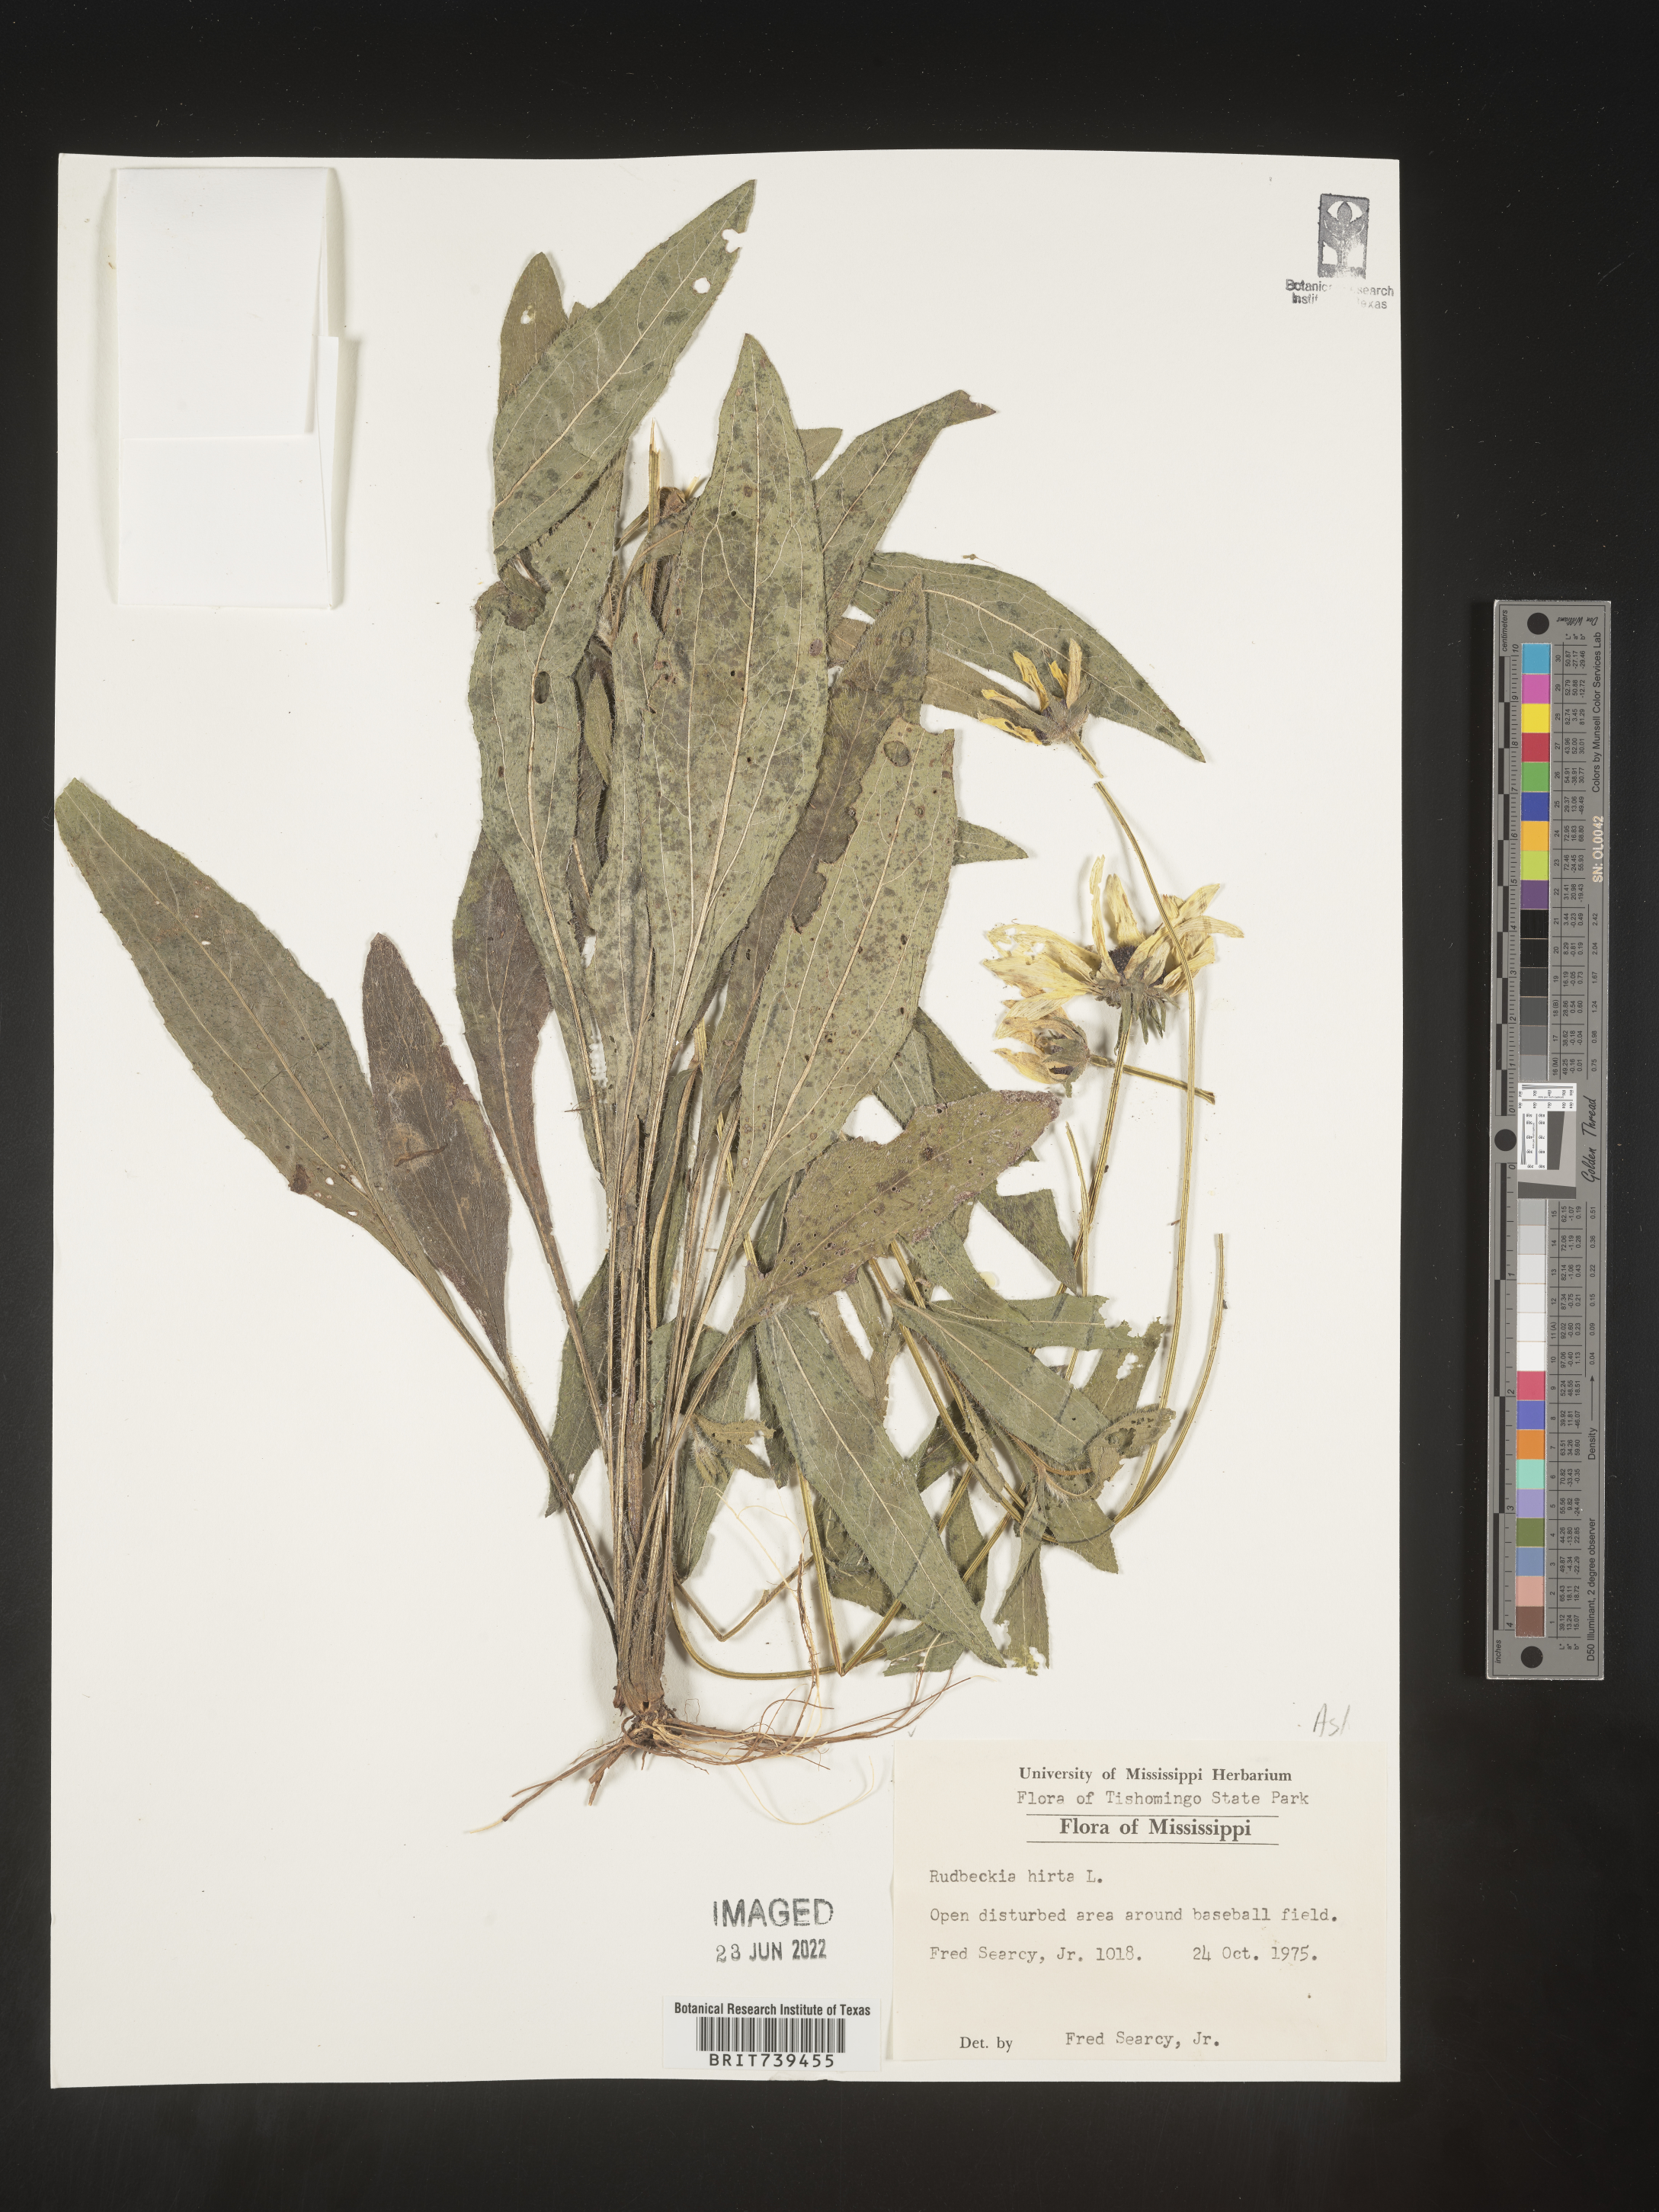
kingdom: Plantae
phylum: Tracheophyta
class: Magnoliopsida
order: Asterales
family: Asteraceae
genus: Rudbeckia
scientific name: Rudbeckia hirta
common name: Black-eyed-susan
